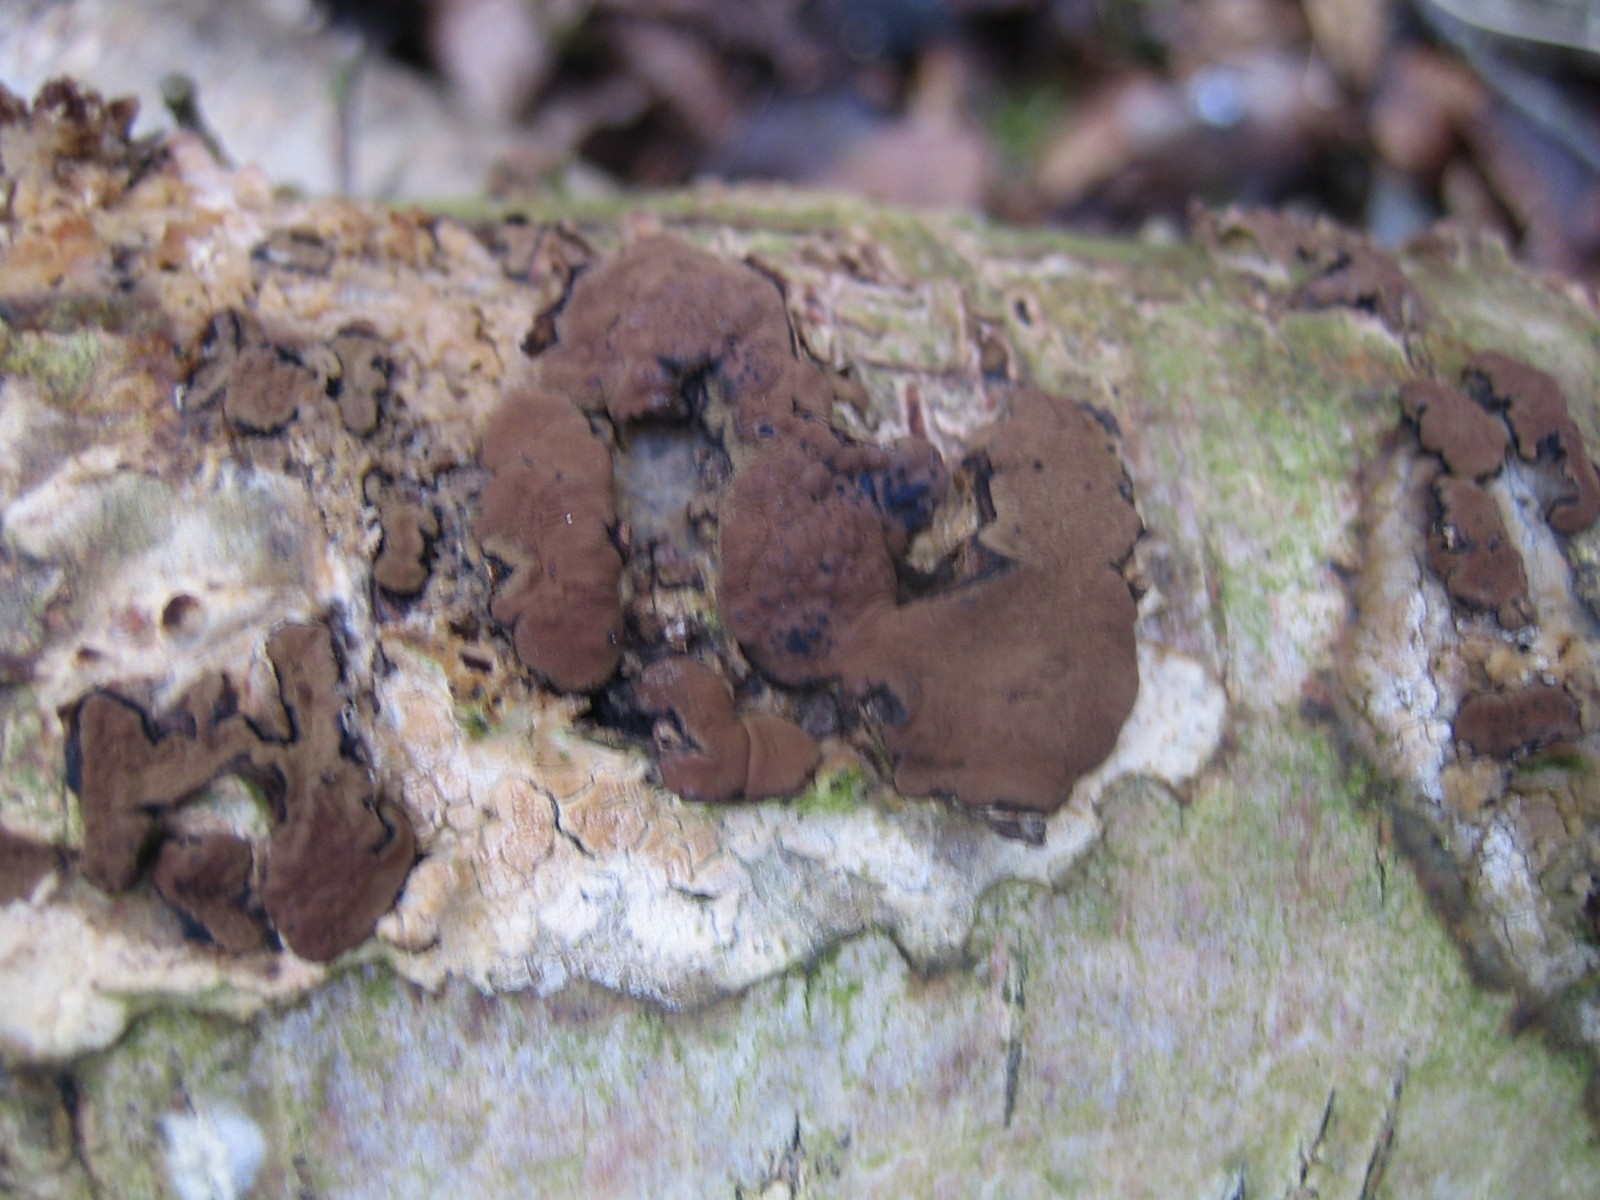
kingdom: Fungi
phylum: Ascomycota
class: Sordariomycetes
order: Xylariales
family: Hypoxylaceae
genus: Jackrogersella
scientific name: Jackrogersella multiformis
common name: foranderlig kulbær
